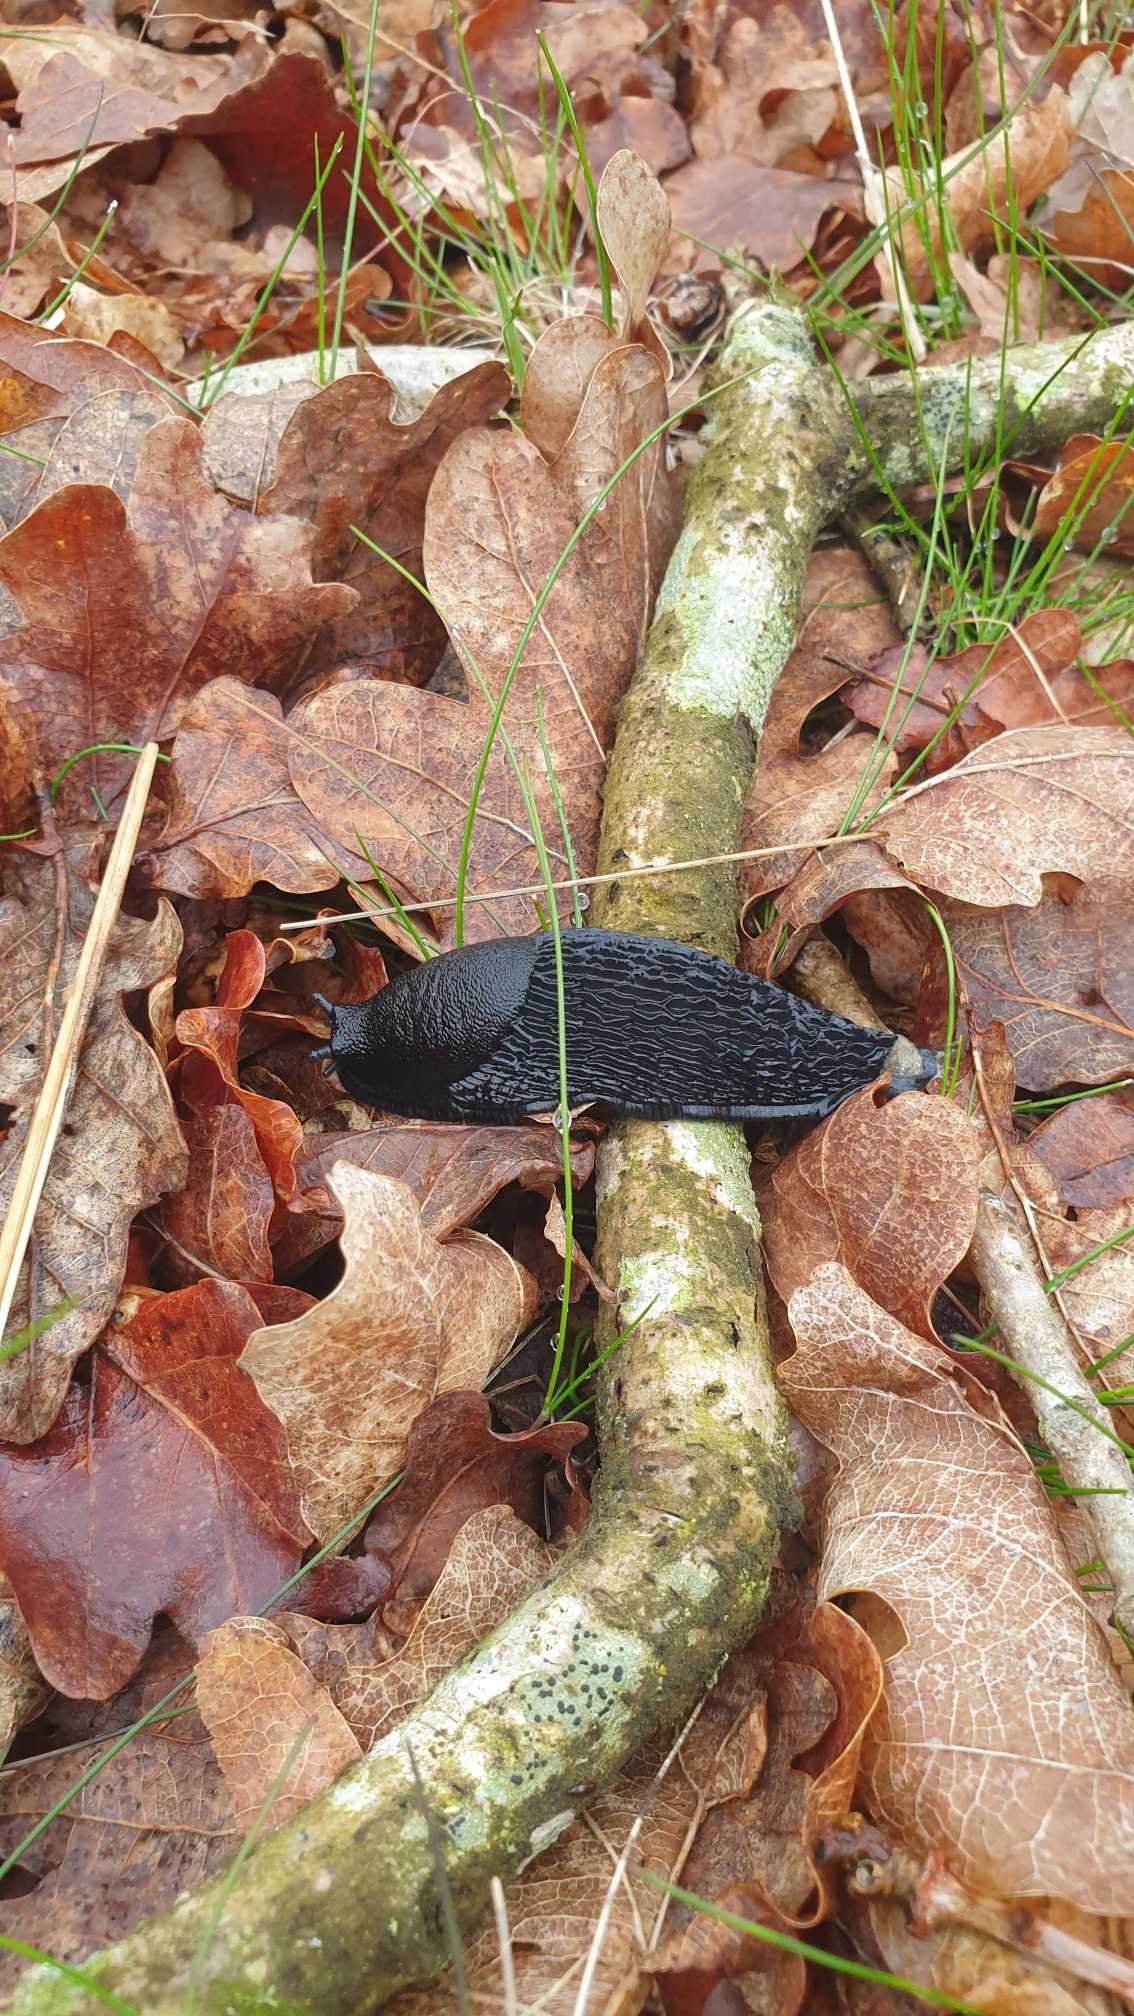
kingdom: Animalia
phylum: Mollusca
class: Gastropoda
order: Stylommatophora
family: Arionidae
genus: Arion
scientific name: Arion ater
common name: Sort skovsnegl
